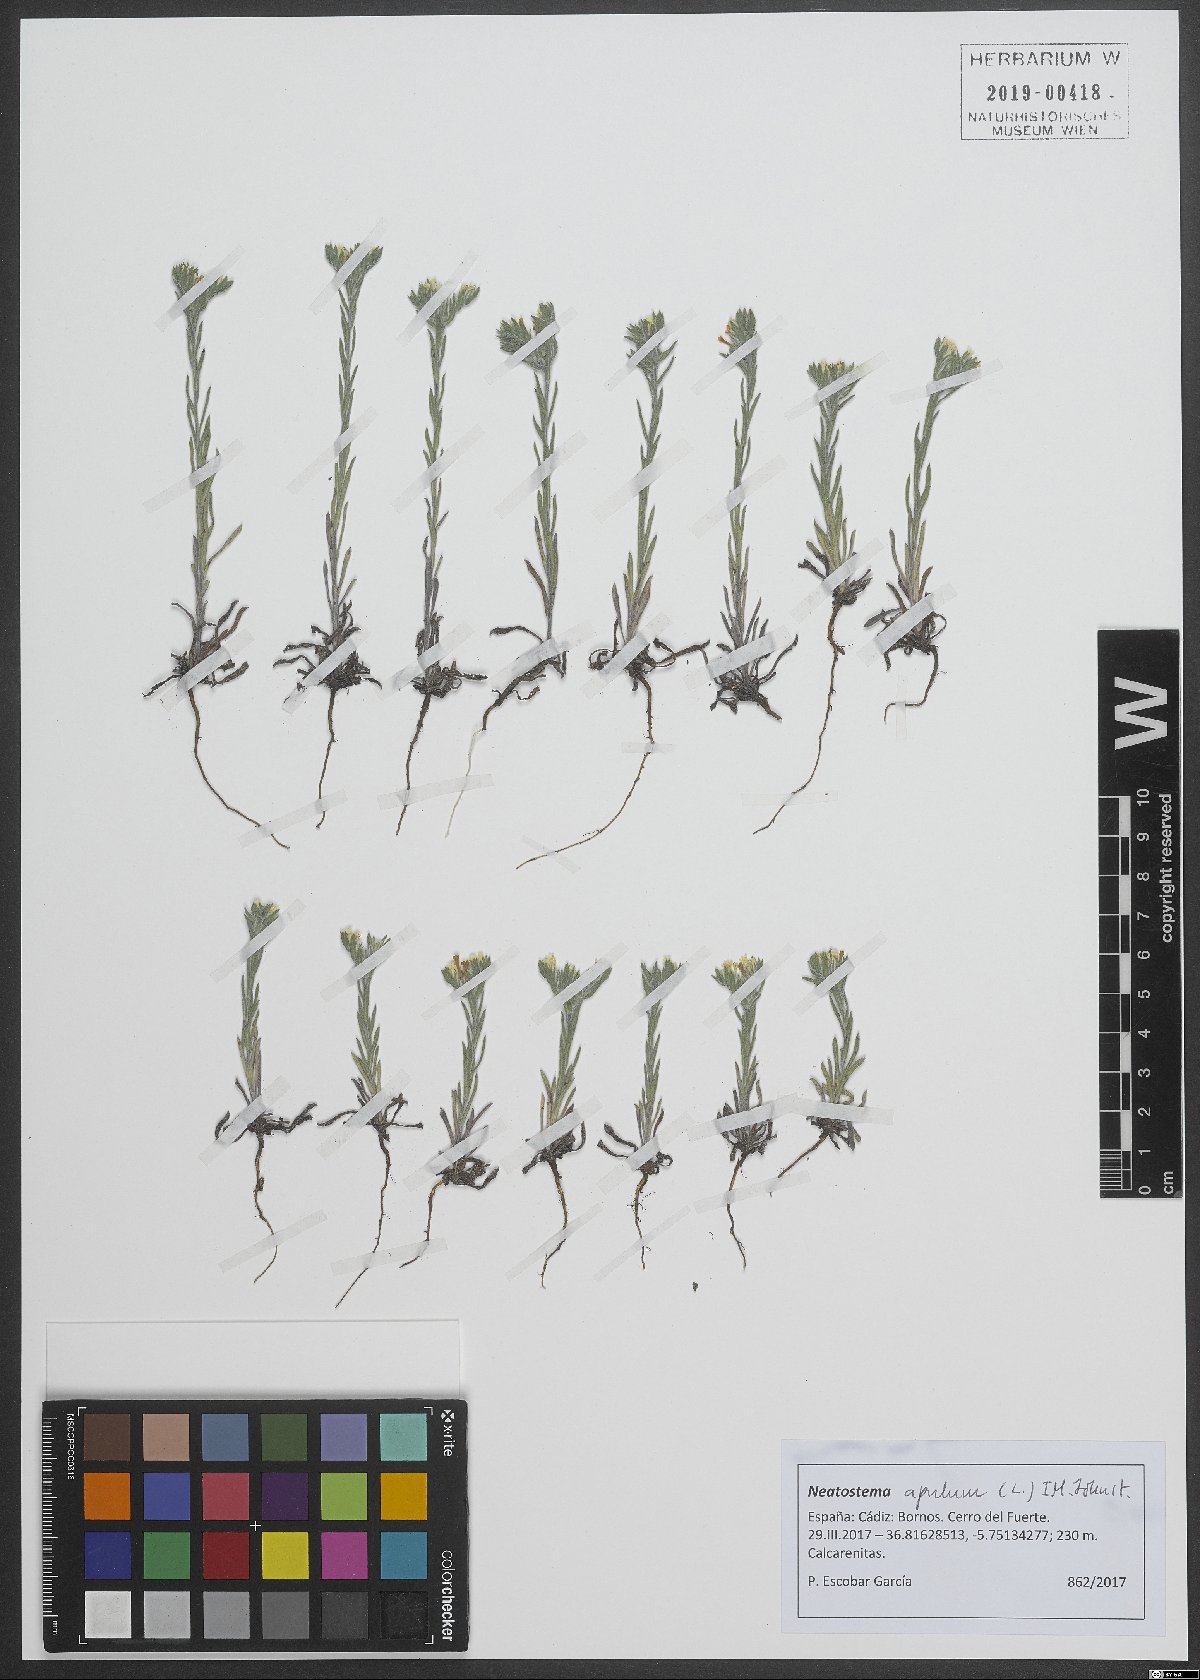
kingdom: Plantae
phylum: Tracheophyta
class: Magnoliopsida
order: Boraginales
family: Boraginaceae
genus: Neatostema
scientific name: Neatostema apulum
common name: Hairy sheepweed
